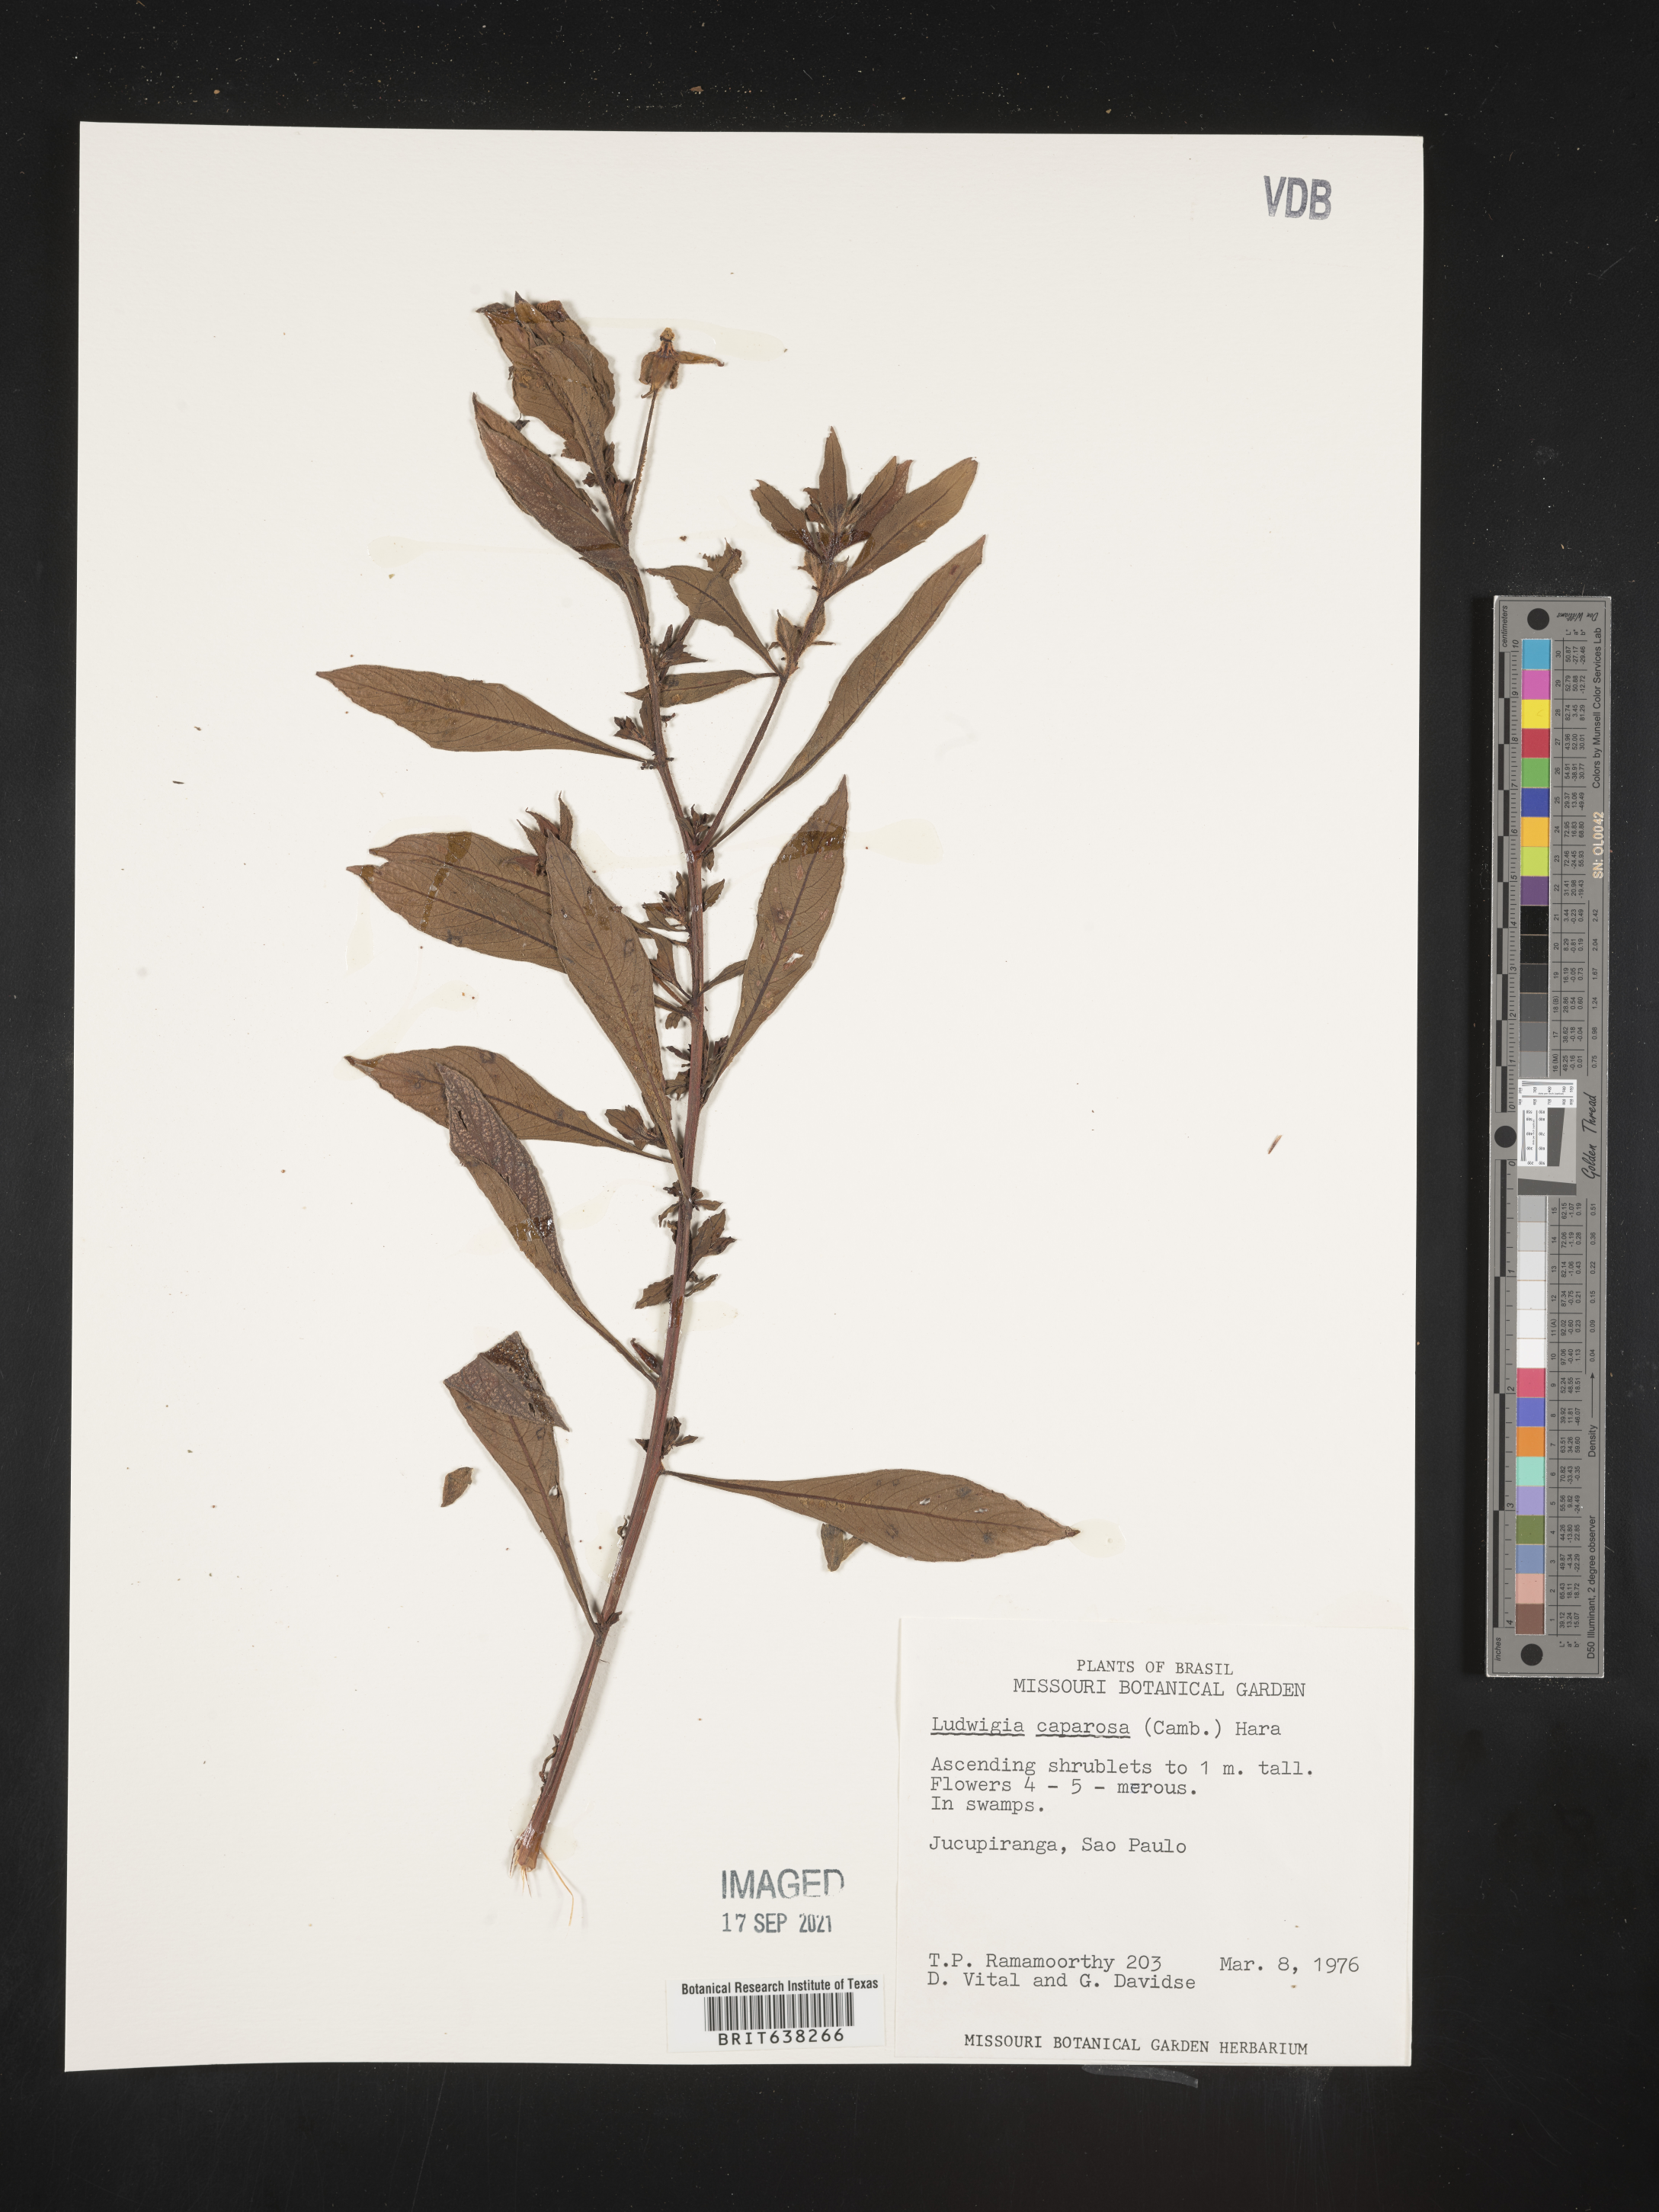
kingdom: Plantae
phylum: Tracheophyta
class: Magnoliopsida
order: Myrtales
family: Onagraceae
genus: Ludwigia
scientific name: Ludwigia
